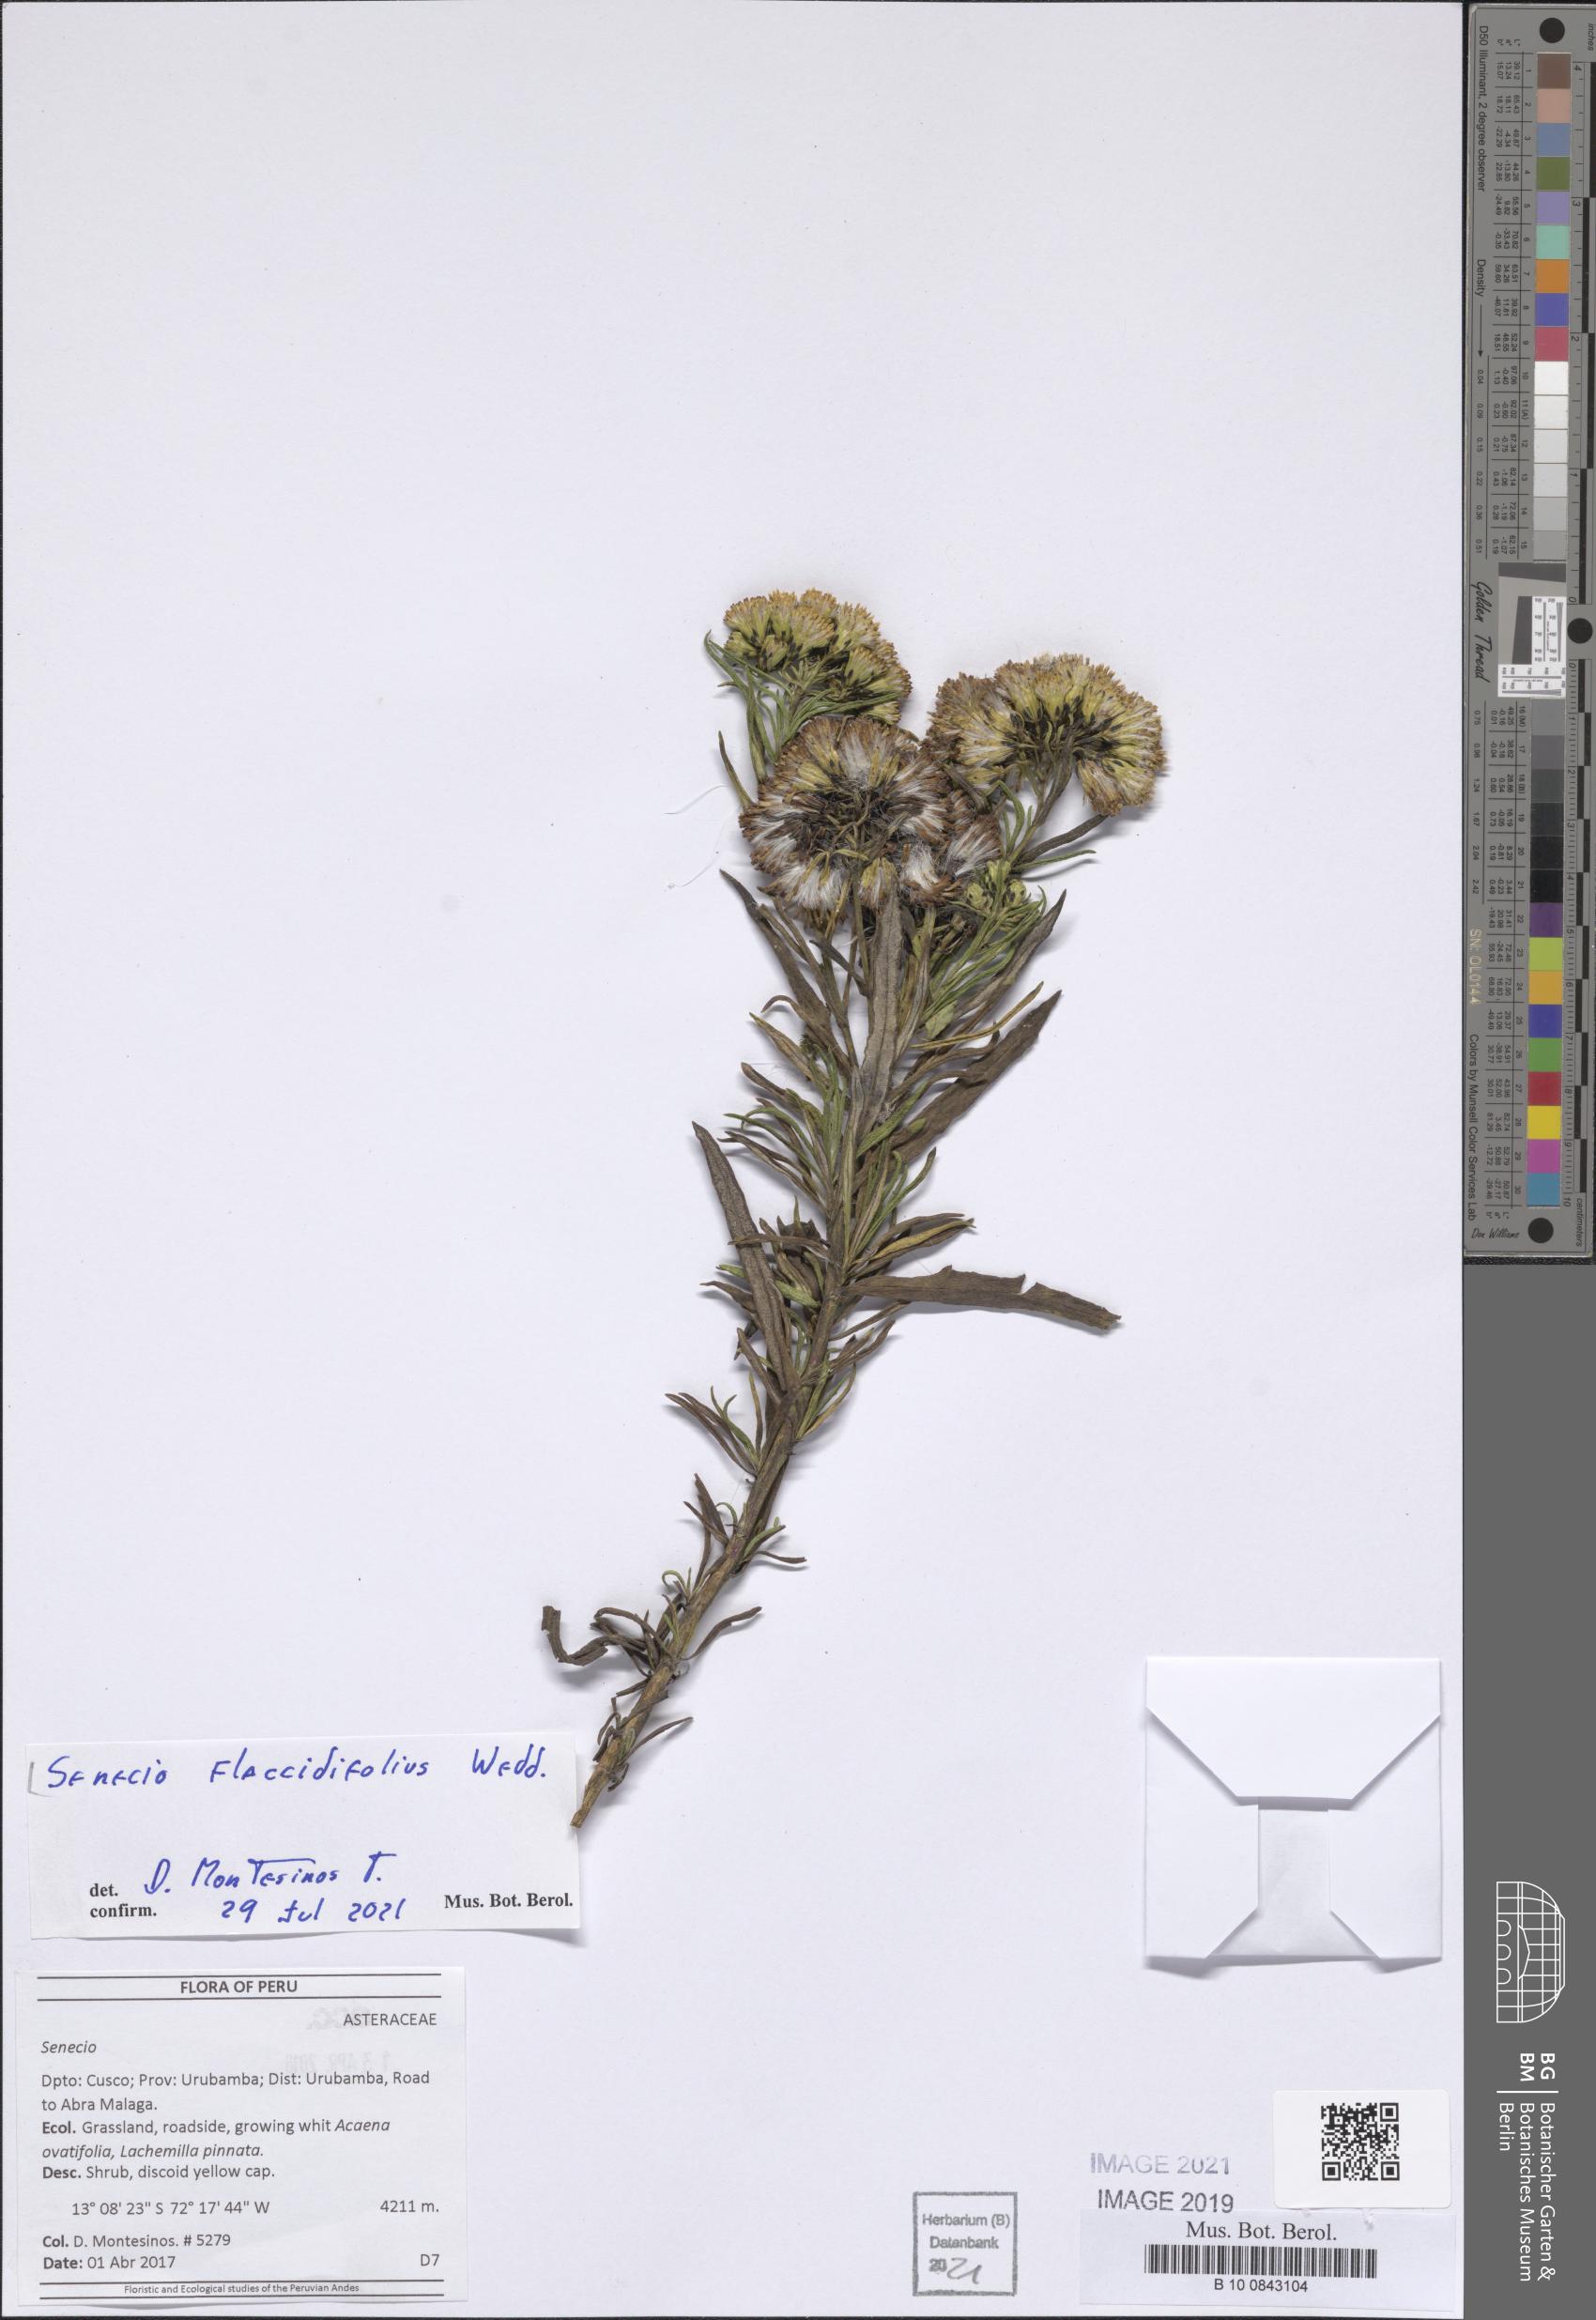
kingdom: Plantae
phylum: Tracheophyta
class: Magnoliopsida
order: Asterales
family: Asteraceae
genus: Senecio
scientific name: Senecio flaccidifolius
